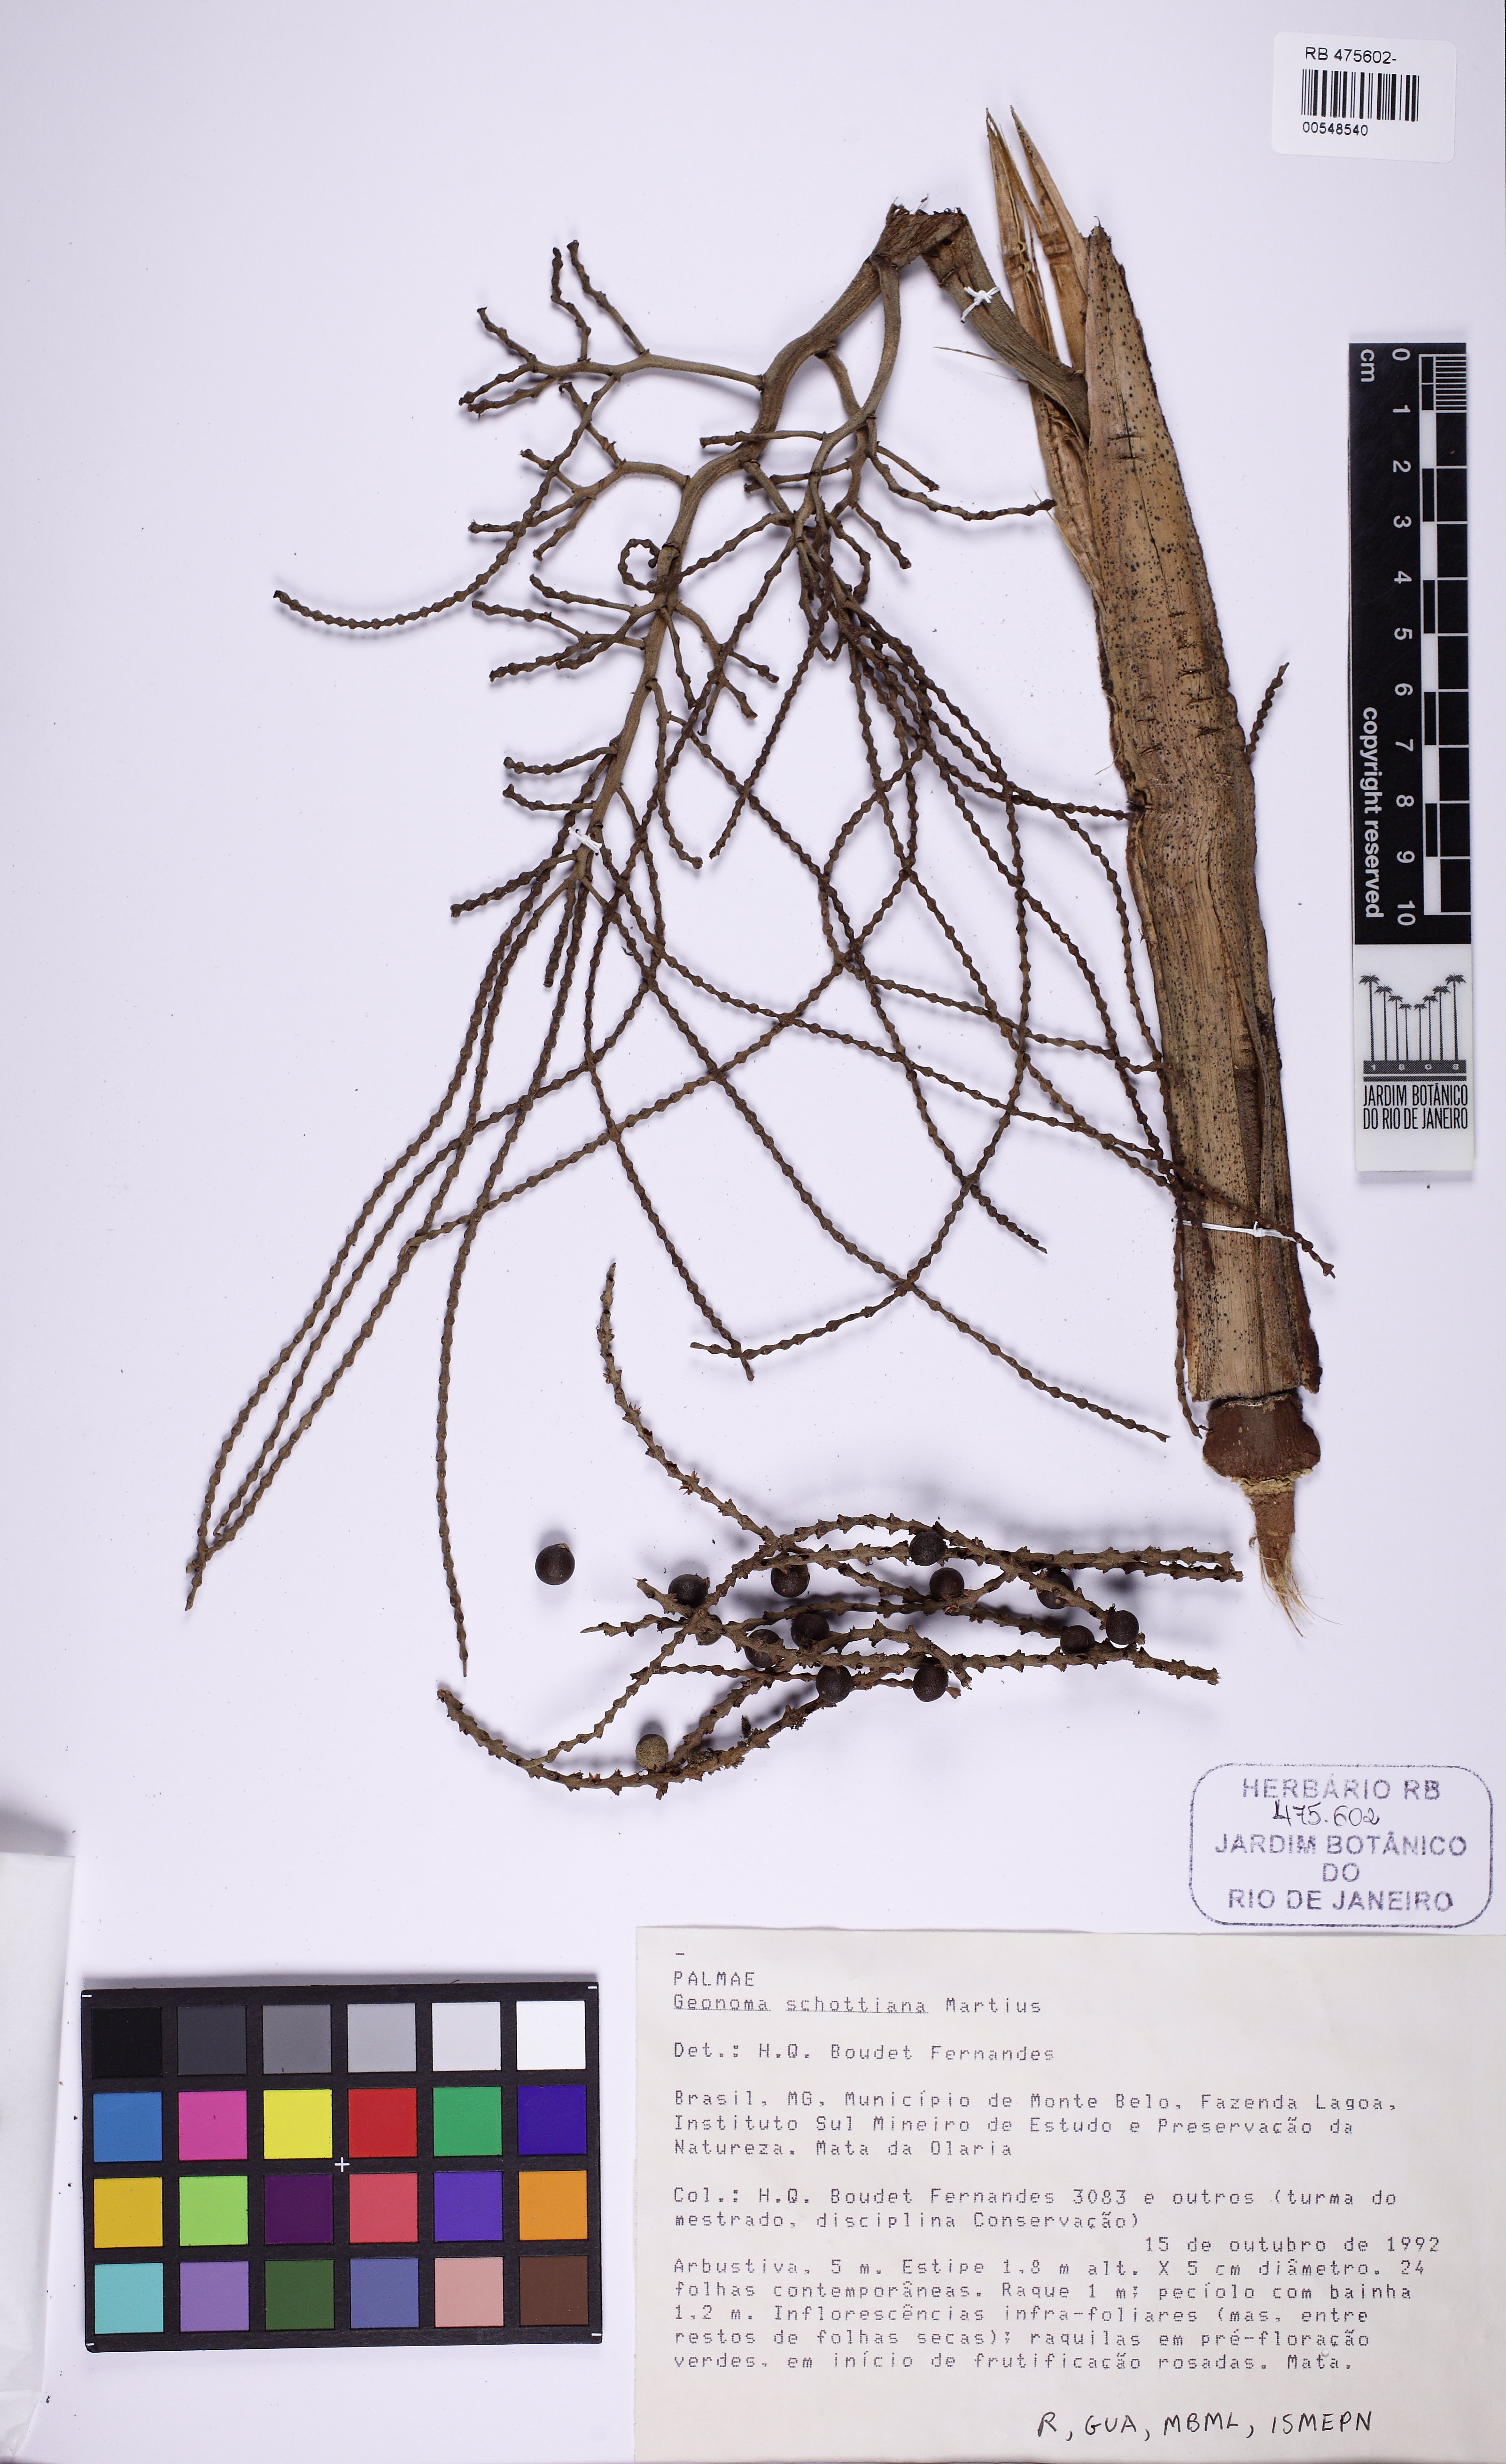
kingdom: Plantae
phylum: Tracheophyta
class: Liliopsida
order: Arecales
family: Arecaceae
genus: Geonoma
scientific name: Geonoma schottiana
